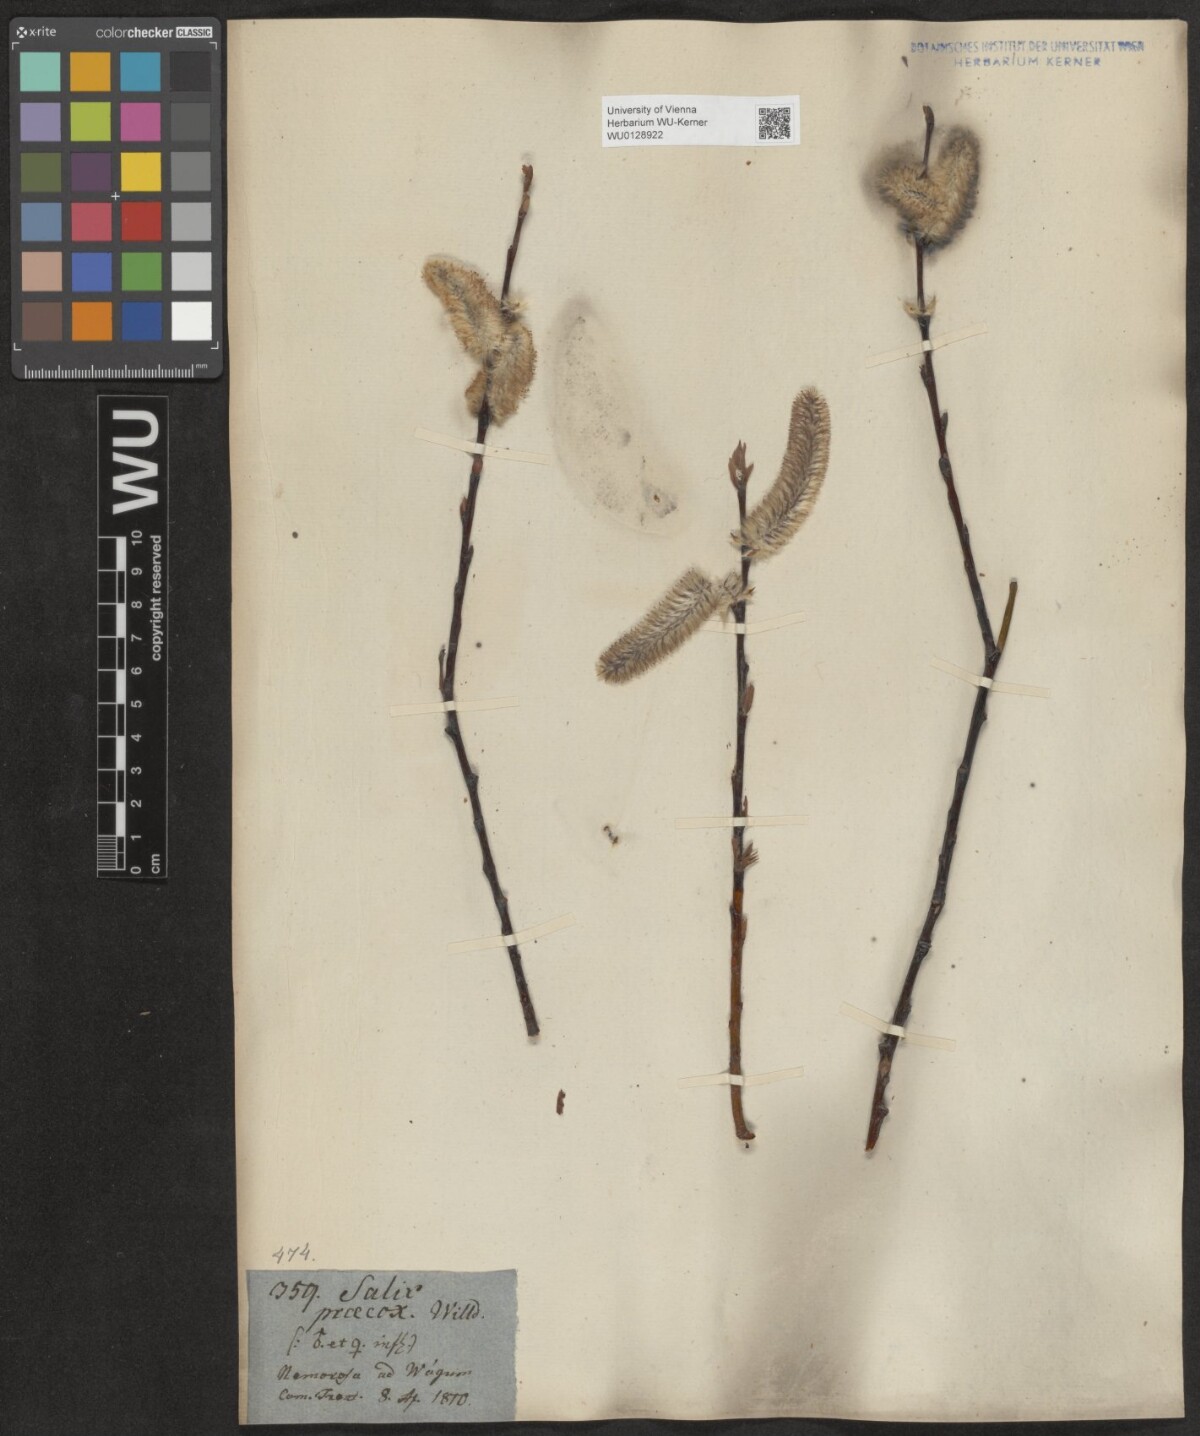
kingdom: Plantae
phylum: Tracheophyta
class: Magnoliopsida
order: Malpighiales
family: Salicaceae
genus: Salix
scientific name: Salix daphnoides
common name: European violet-willow
